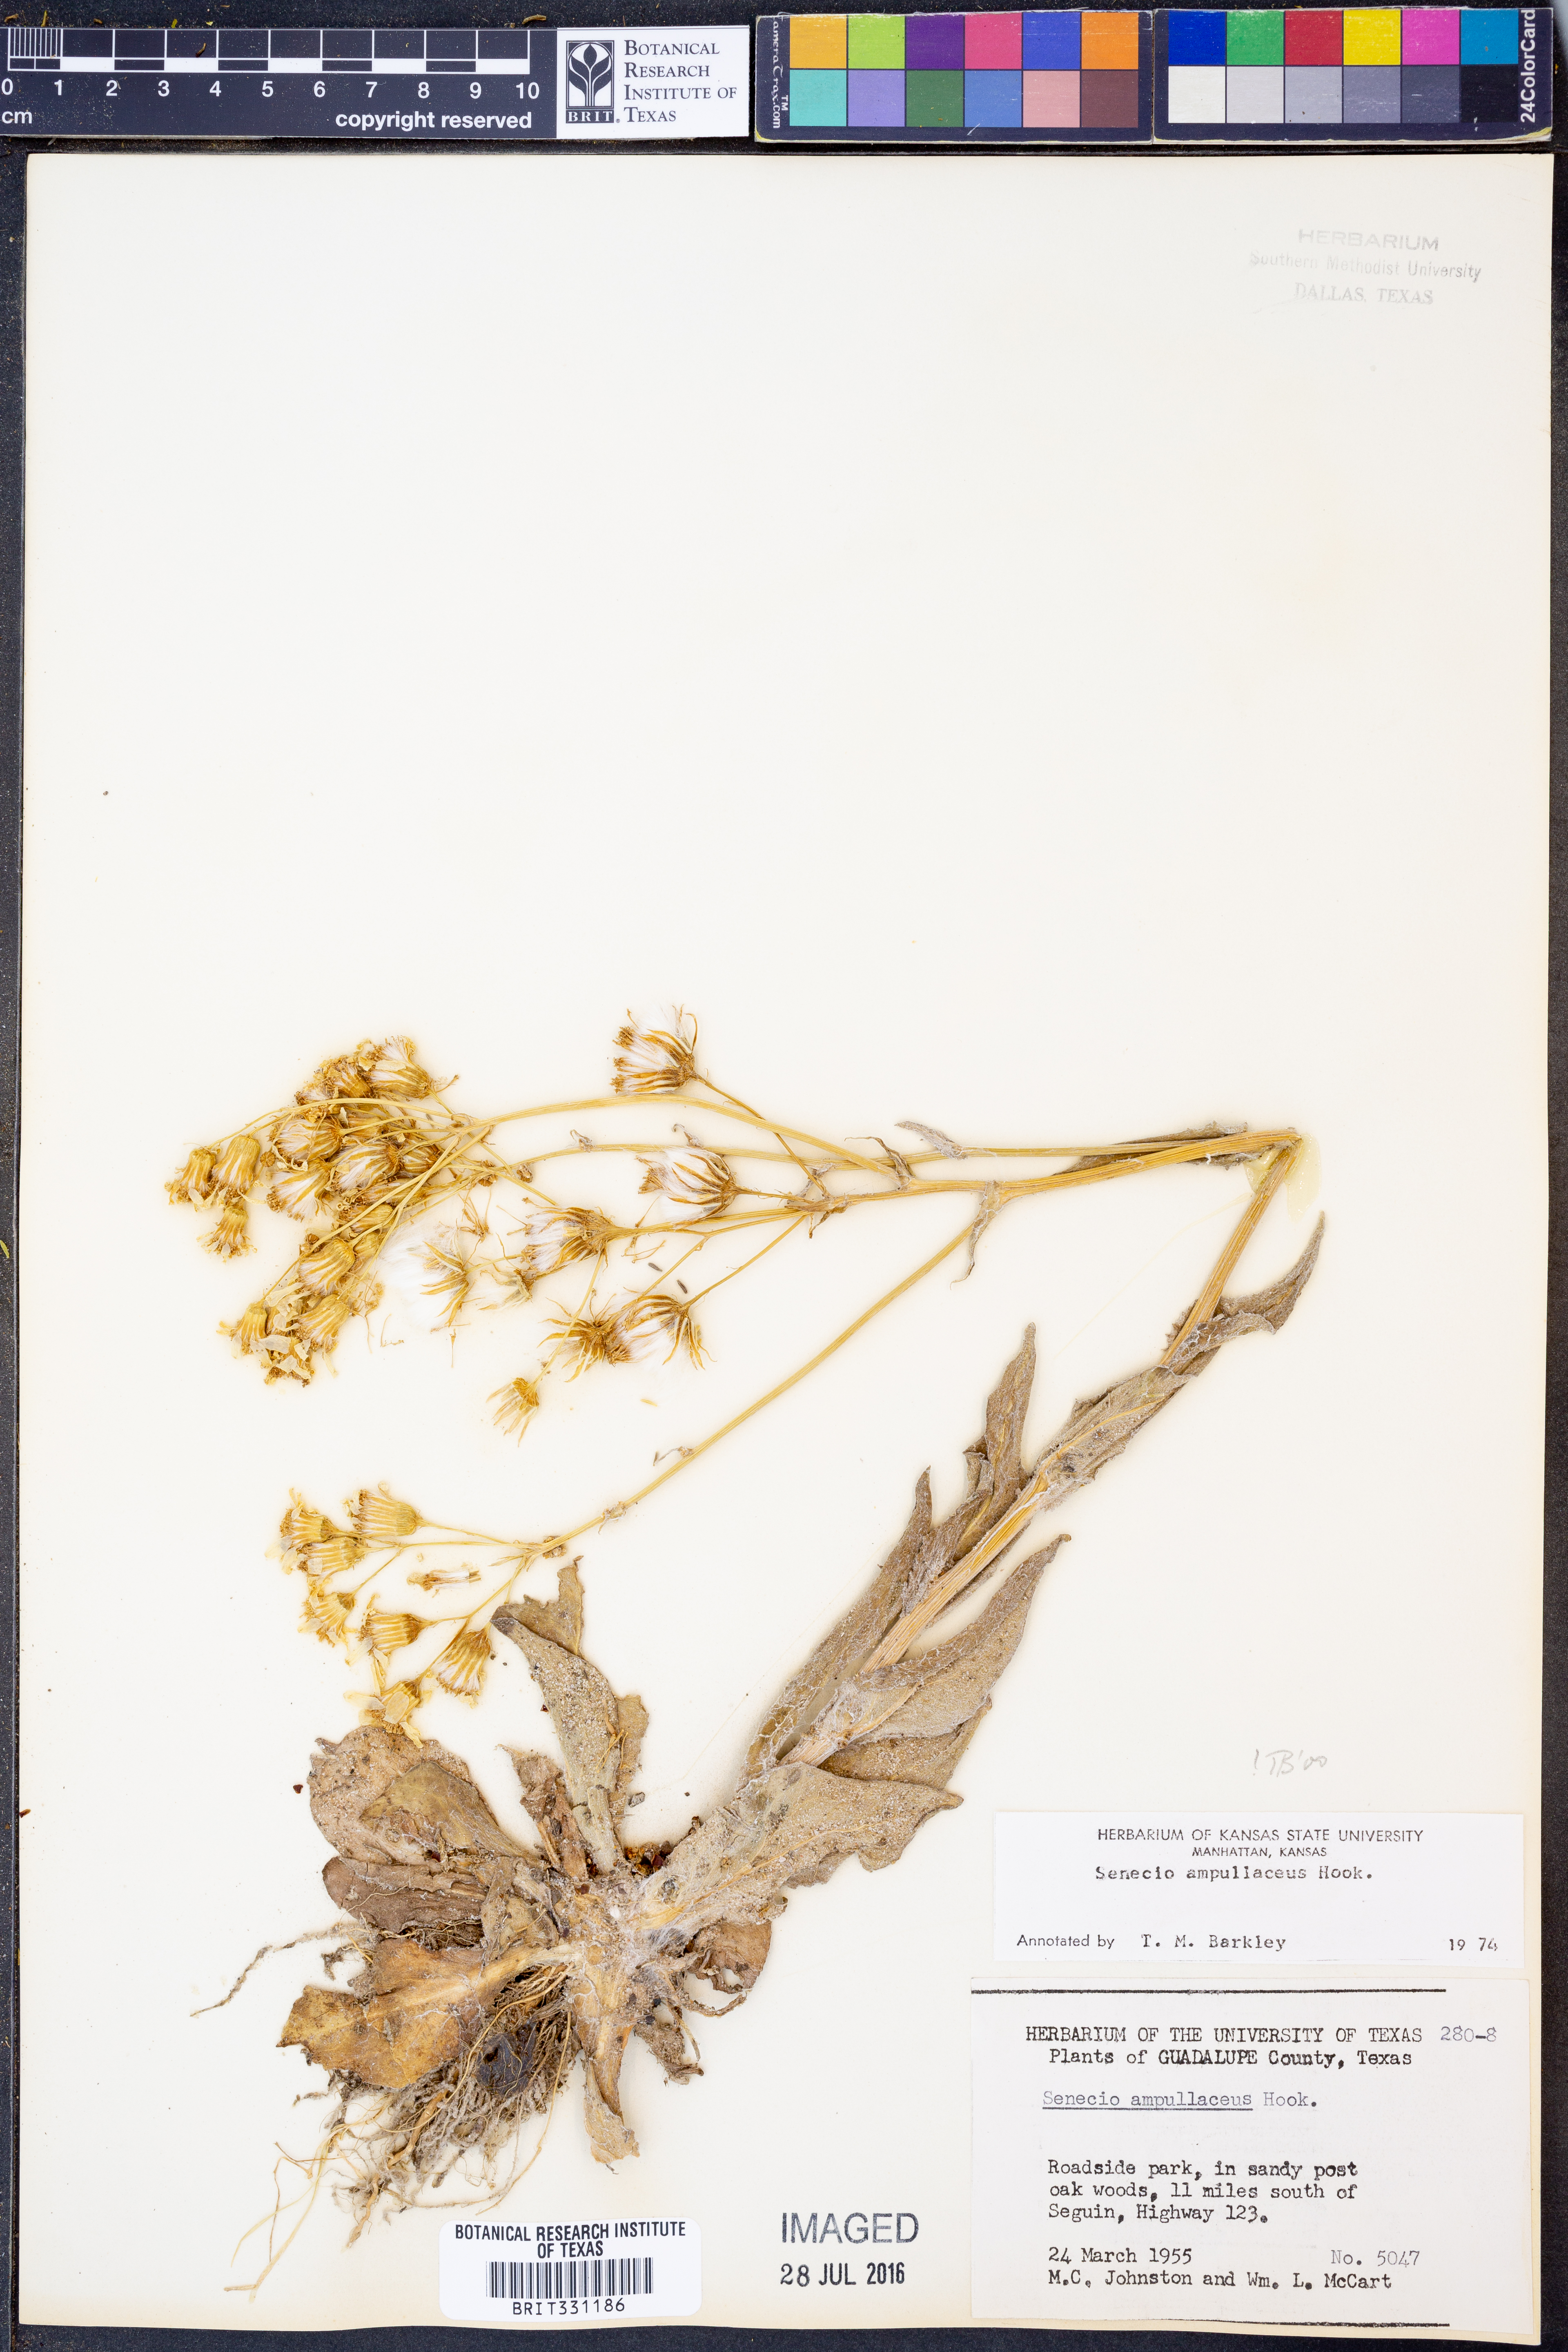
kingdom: Plantae
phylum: Tracheophyta
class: Magnoliopsida
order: Asterales
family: Asteraceae
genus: Senecio
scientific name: Senecio ampullaceus
